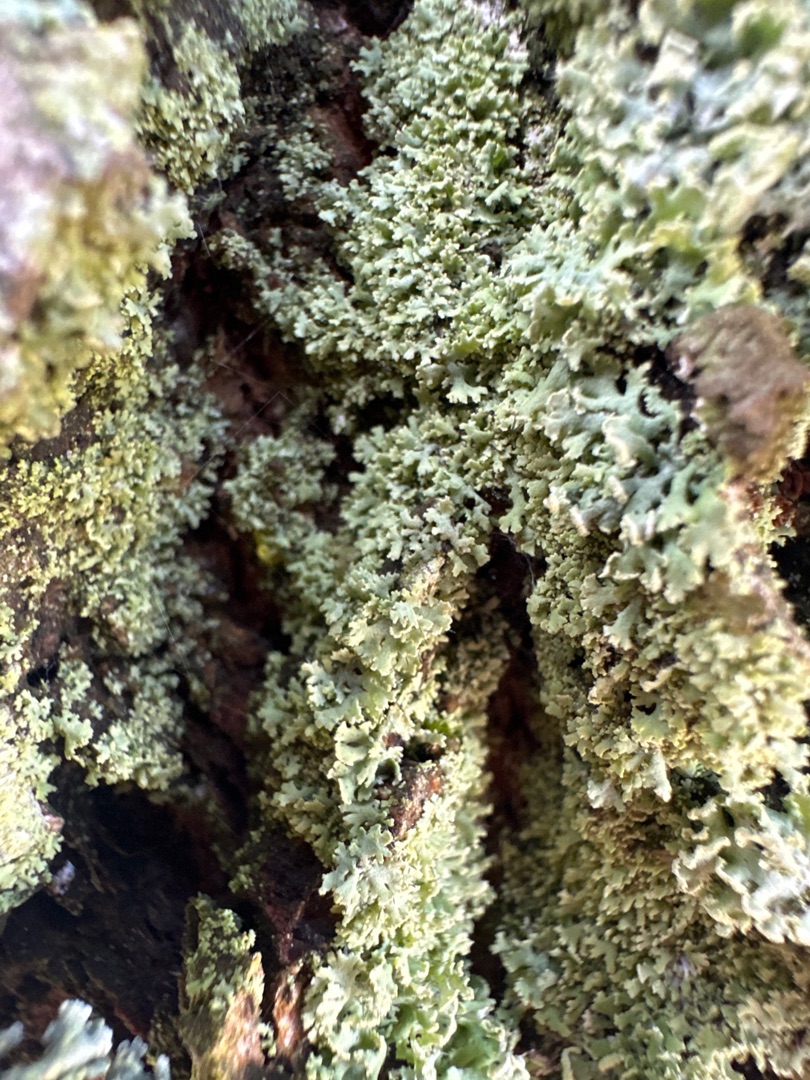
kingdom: Fungi
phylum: Ascomycota
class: Lecanoromycetes
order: Caliciales
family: Physciaceae
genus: Physcia
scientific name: Physcia tenella
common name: Spæd rosetlav
